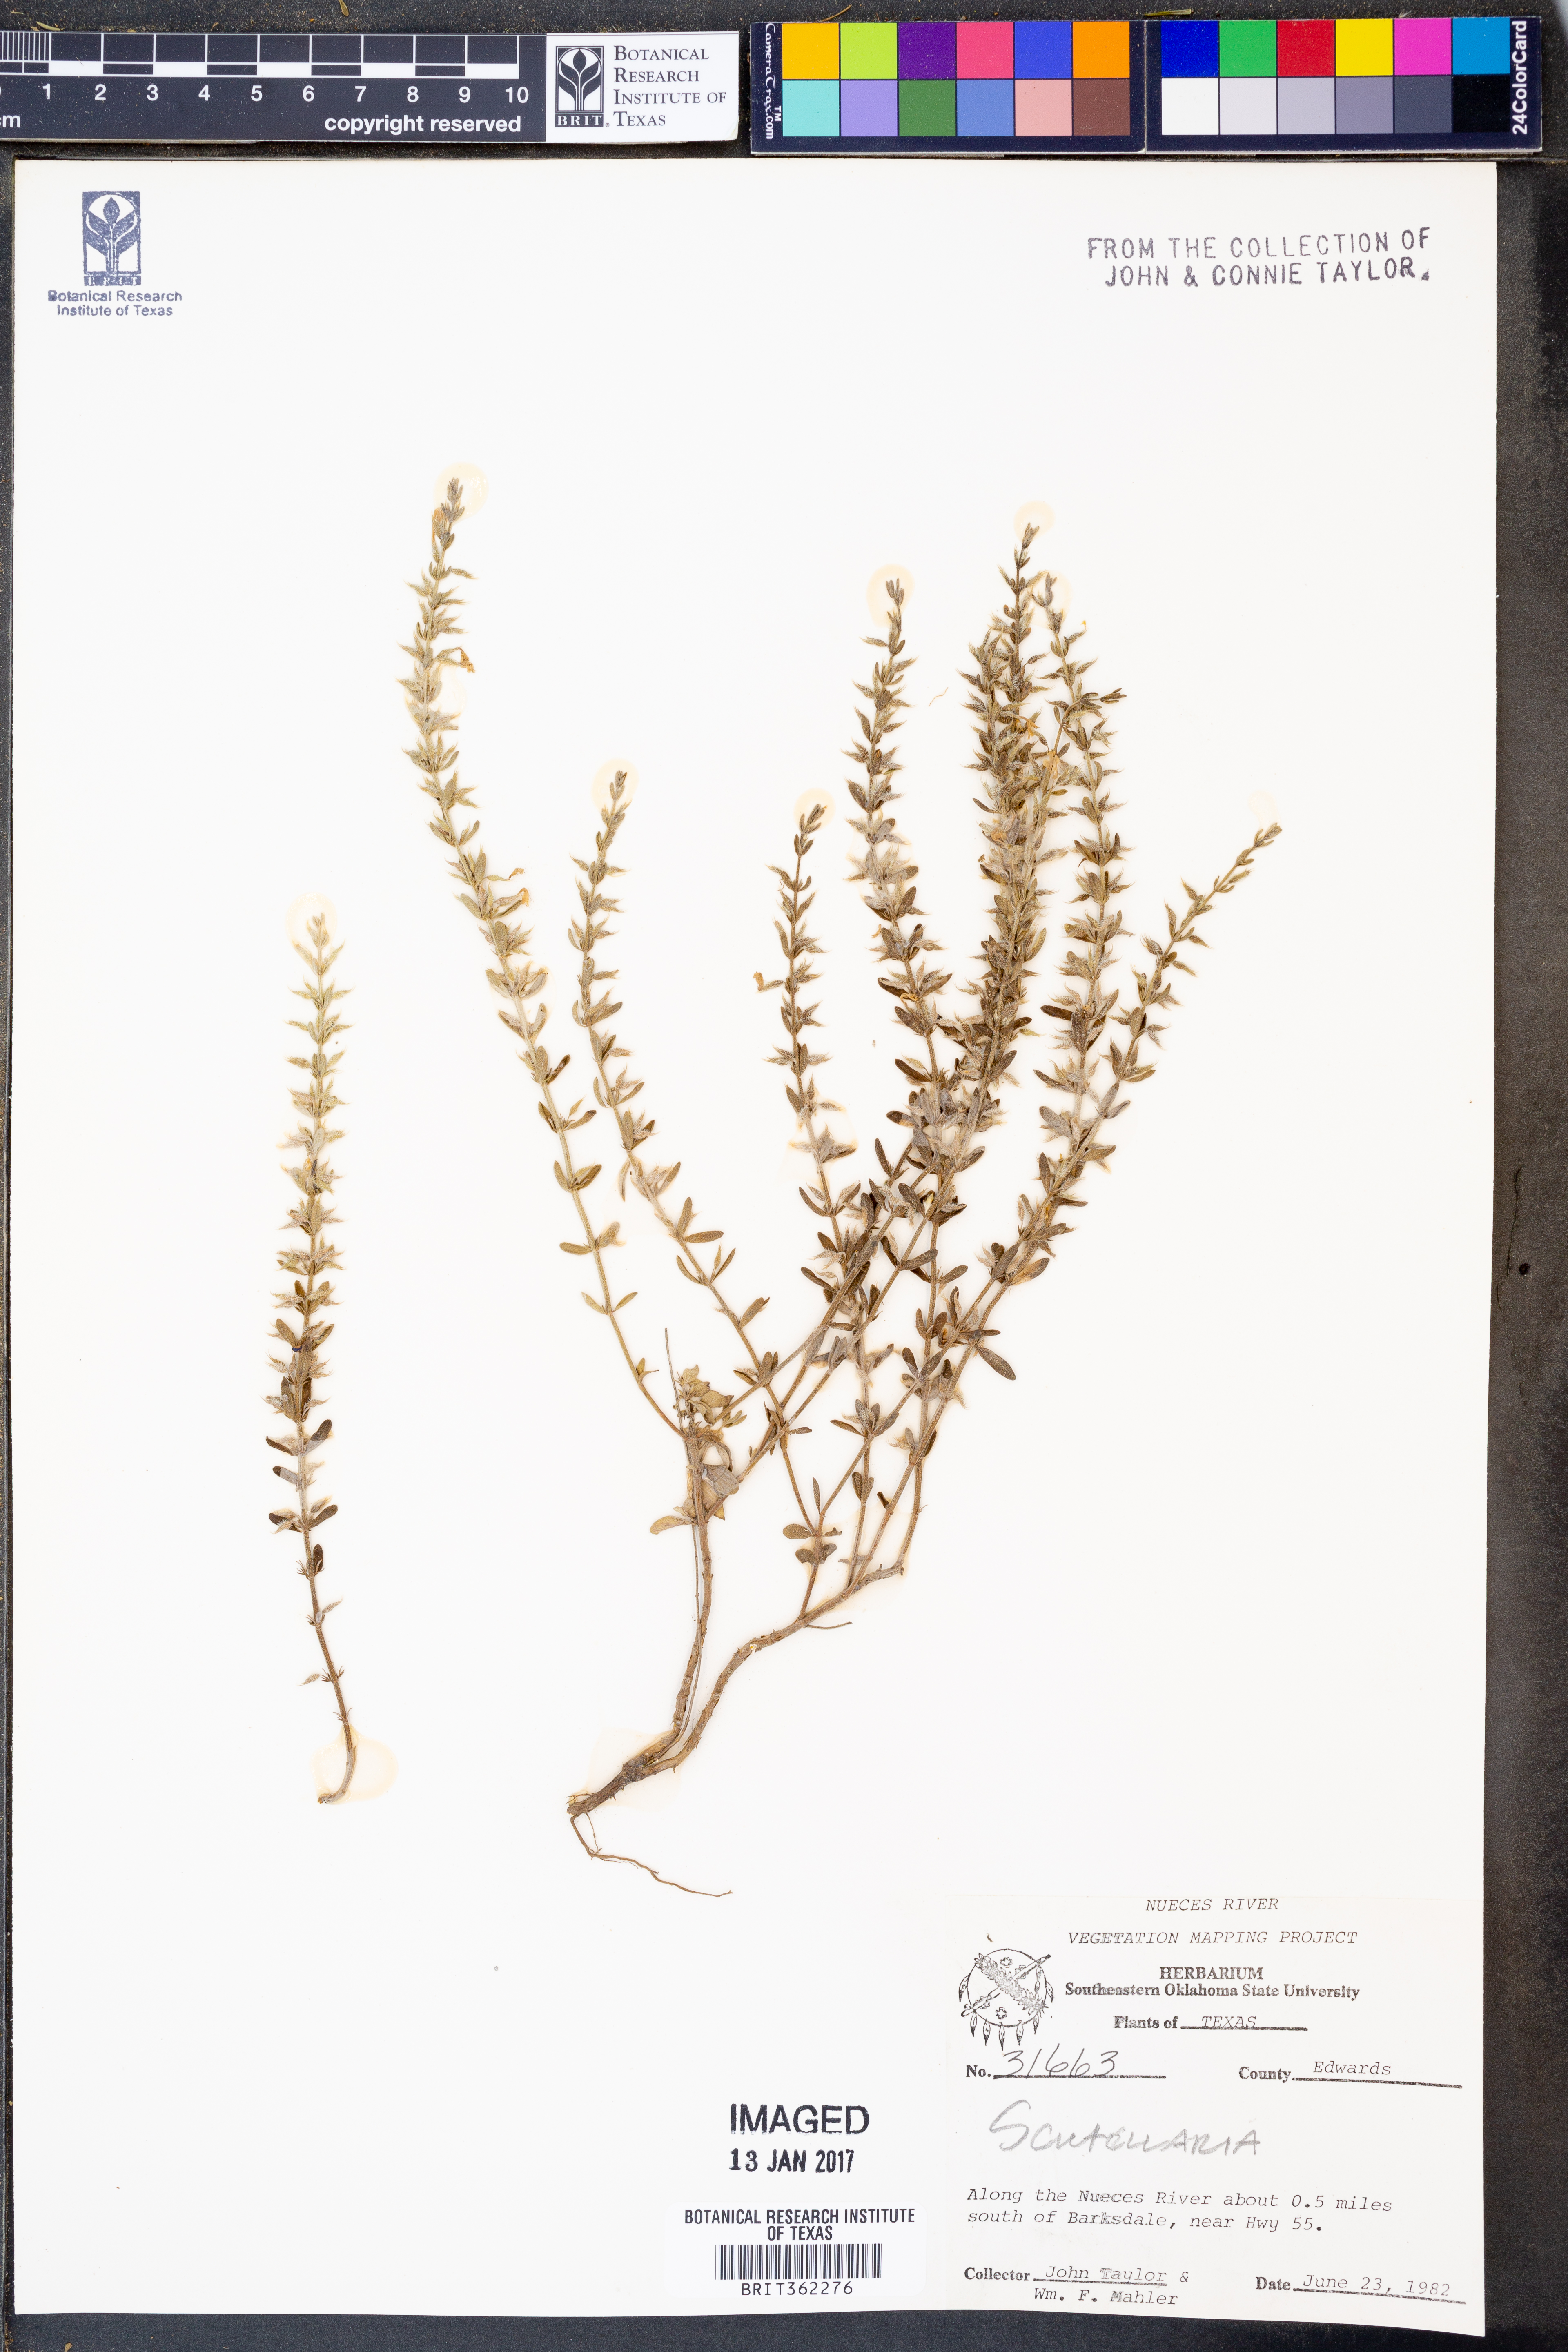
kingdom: Plantae
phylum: Tracheophyta
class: Magnoliopsida
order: Lamiales
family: Lamiaceae
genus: Scutellaria
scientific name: Scutellaria
